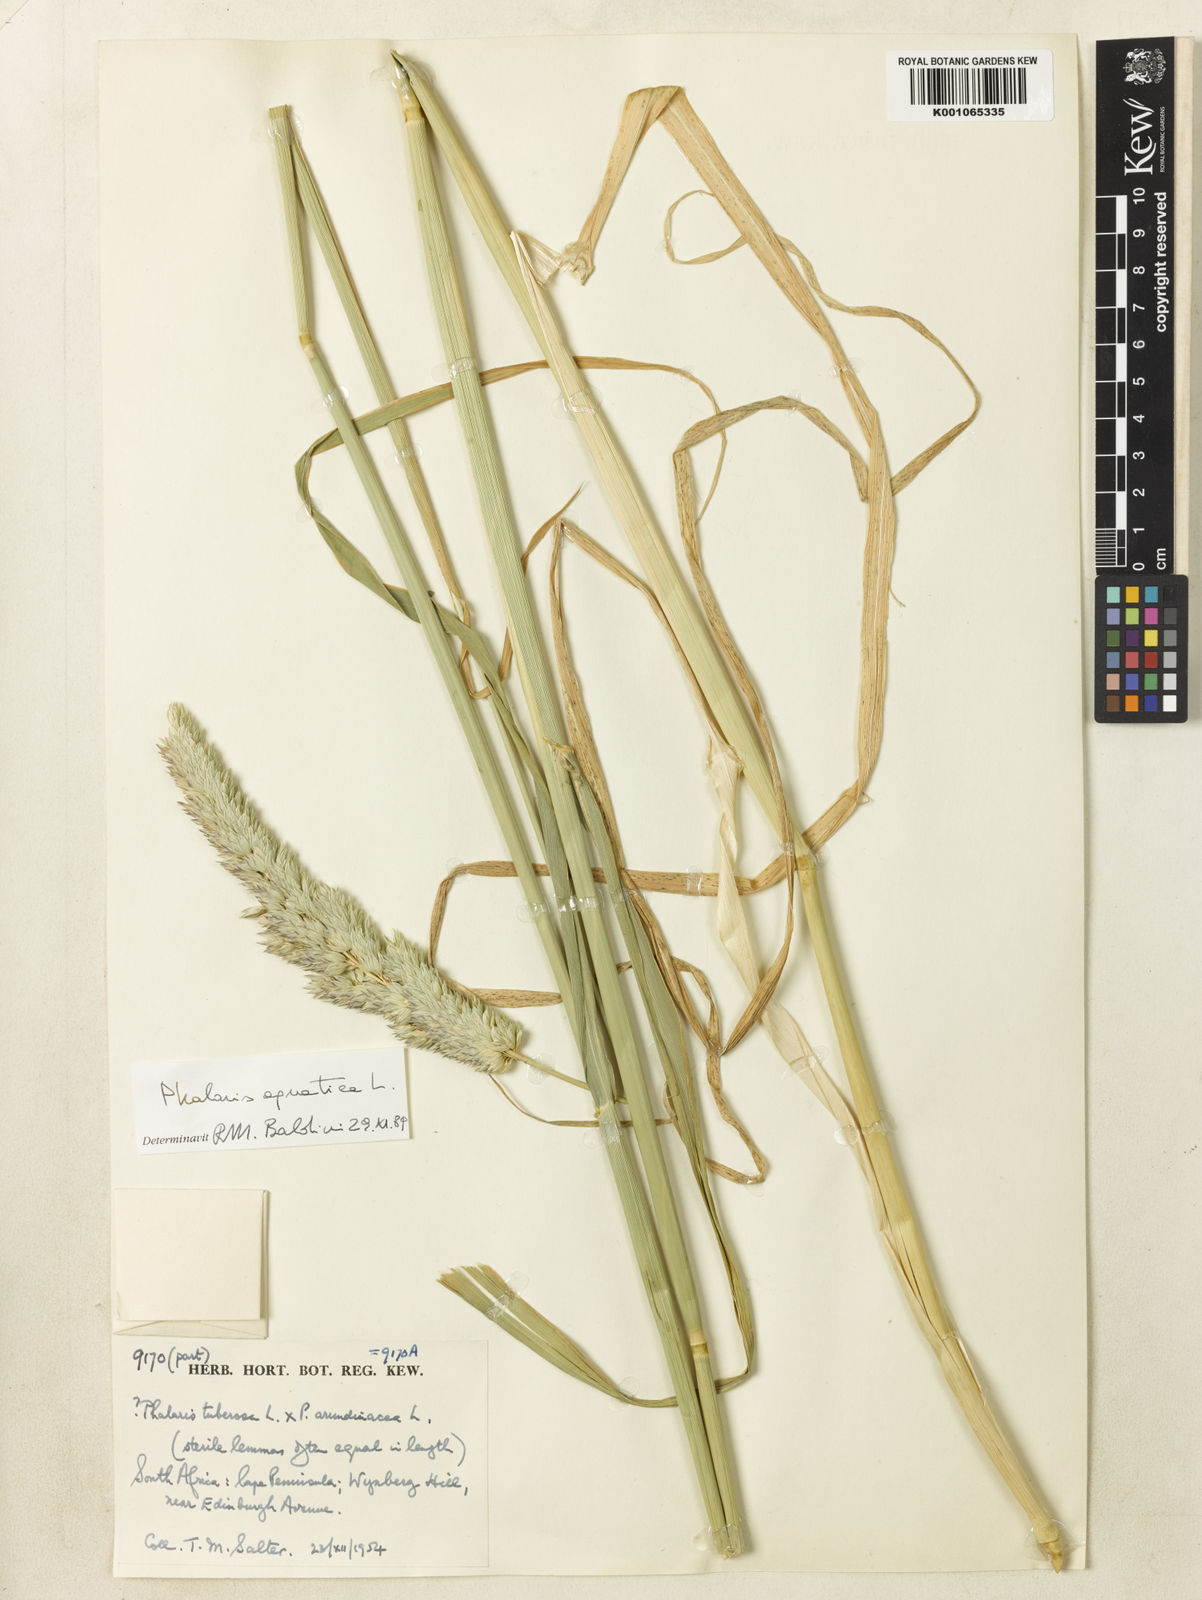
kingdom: Plantae
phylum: Tracheophyta
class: Liliopsida
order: Poales
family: Poaceae
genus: Phalaris
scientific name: Phalaris arundinacea
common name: Reed canary-grass
